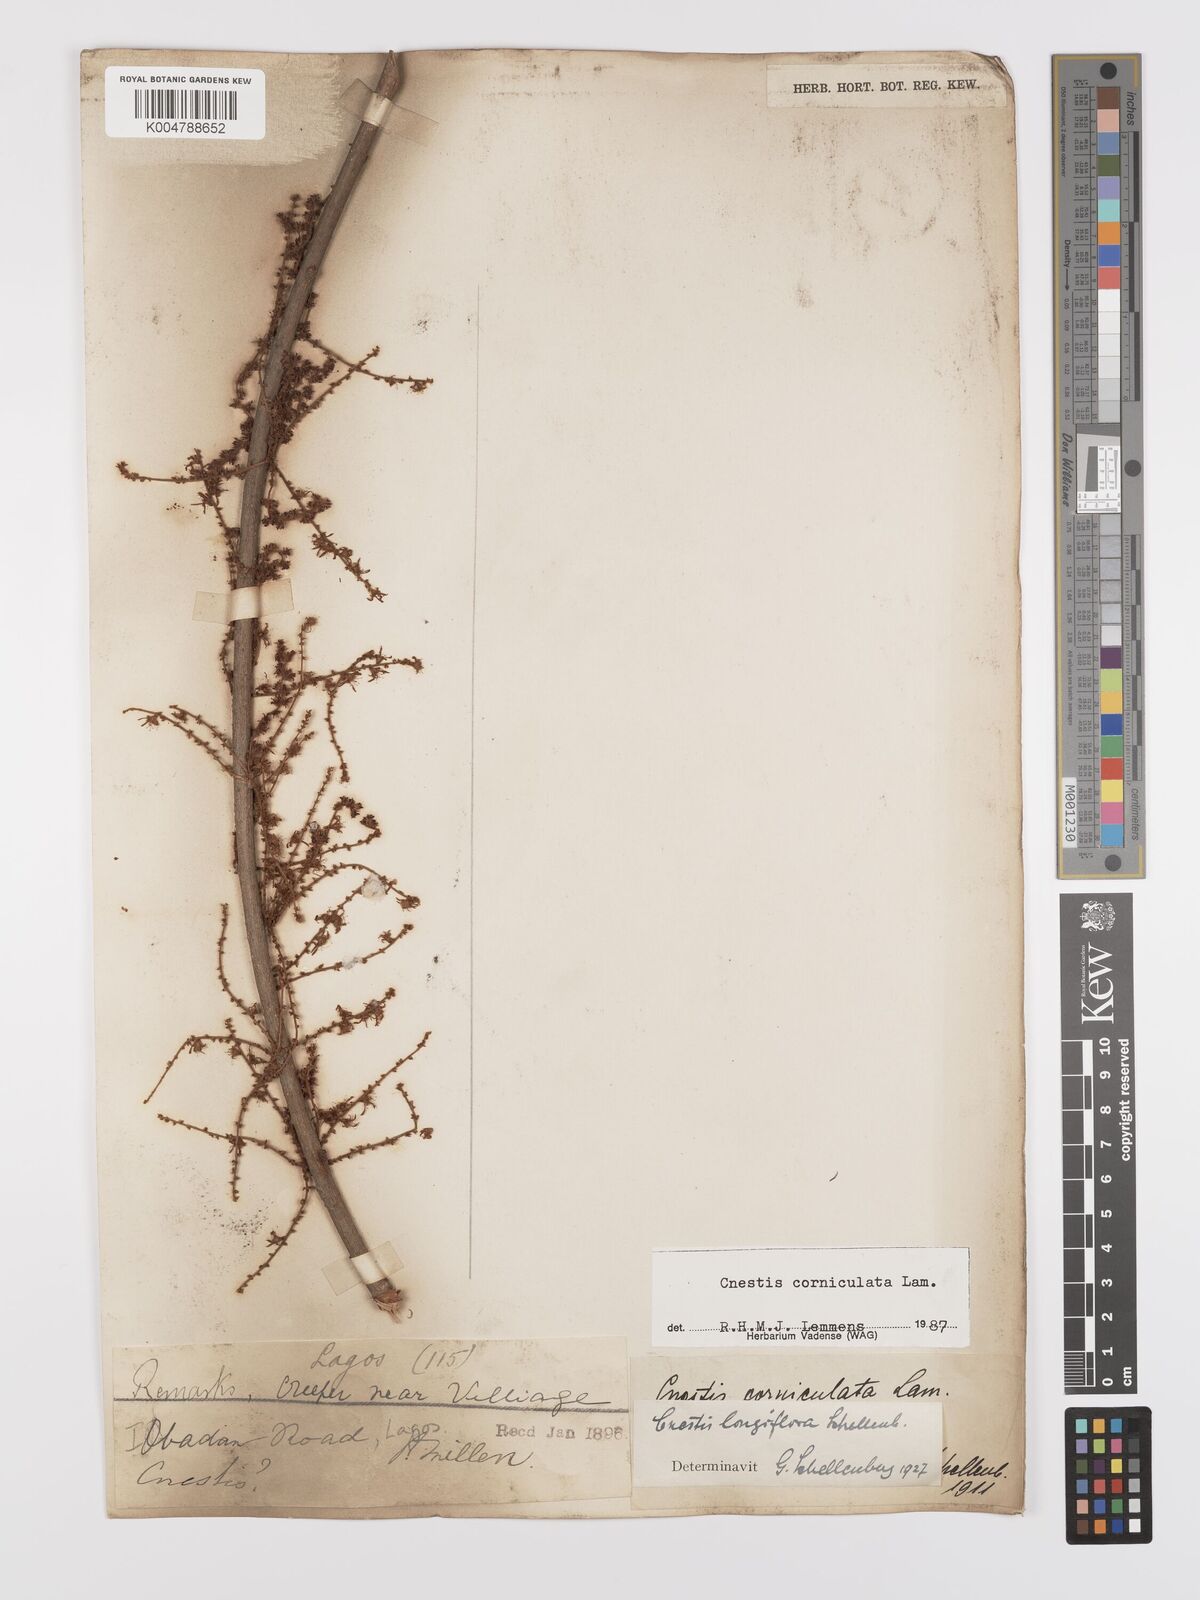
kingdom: Plantae
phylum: Tracheophyta
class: Magnoliopsida
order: Oxalidales
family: Connaraceae
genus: Cnestis
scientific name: Cnestis corniculata
